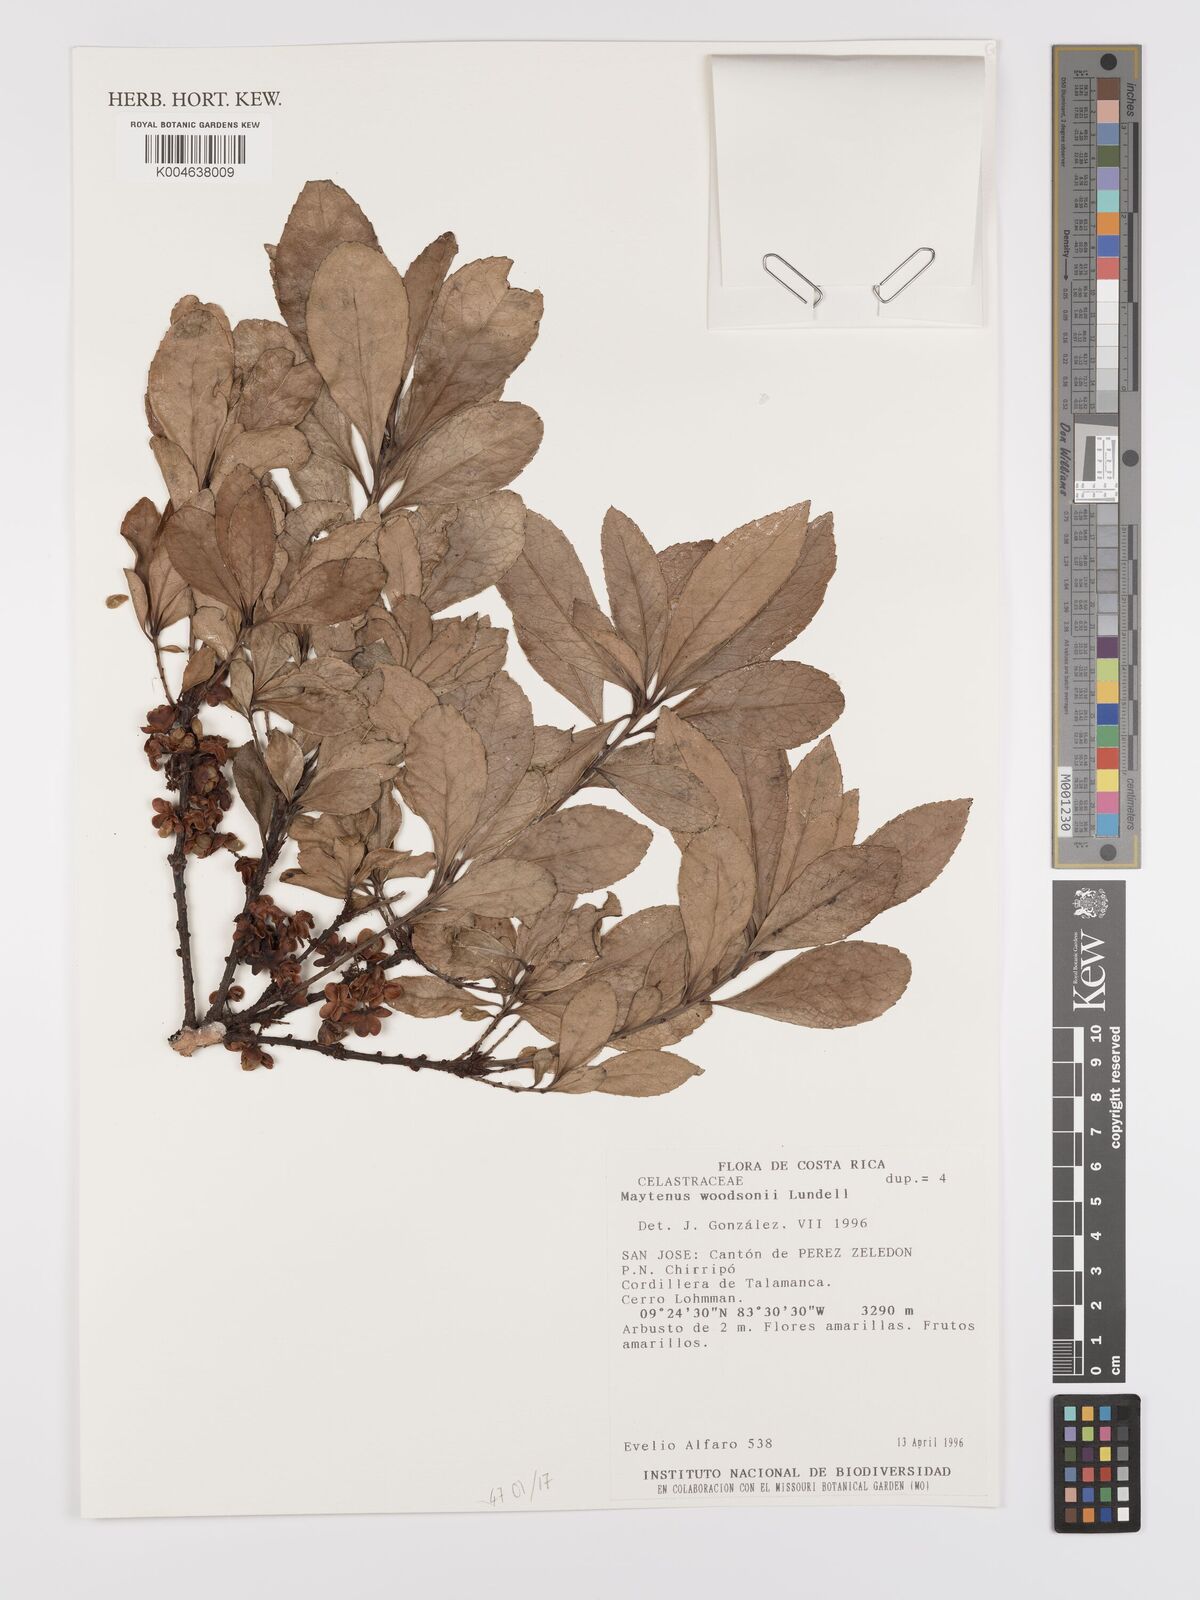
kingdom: Plantae
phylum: Tracheophyta
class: Magnoliopsida
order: Celastrales
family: Celastraceae
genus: Maytenus
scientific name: Maytenus woodsonii
